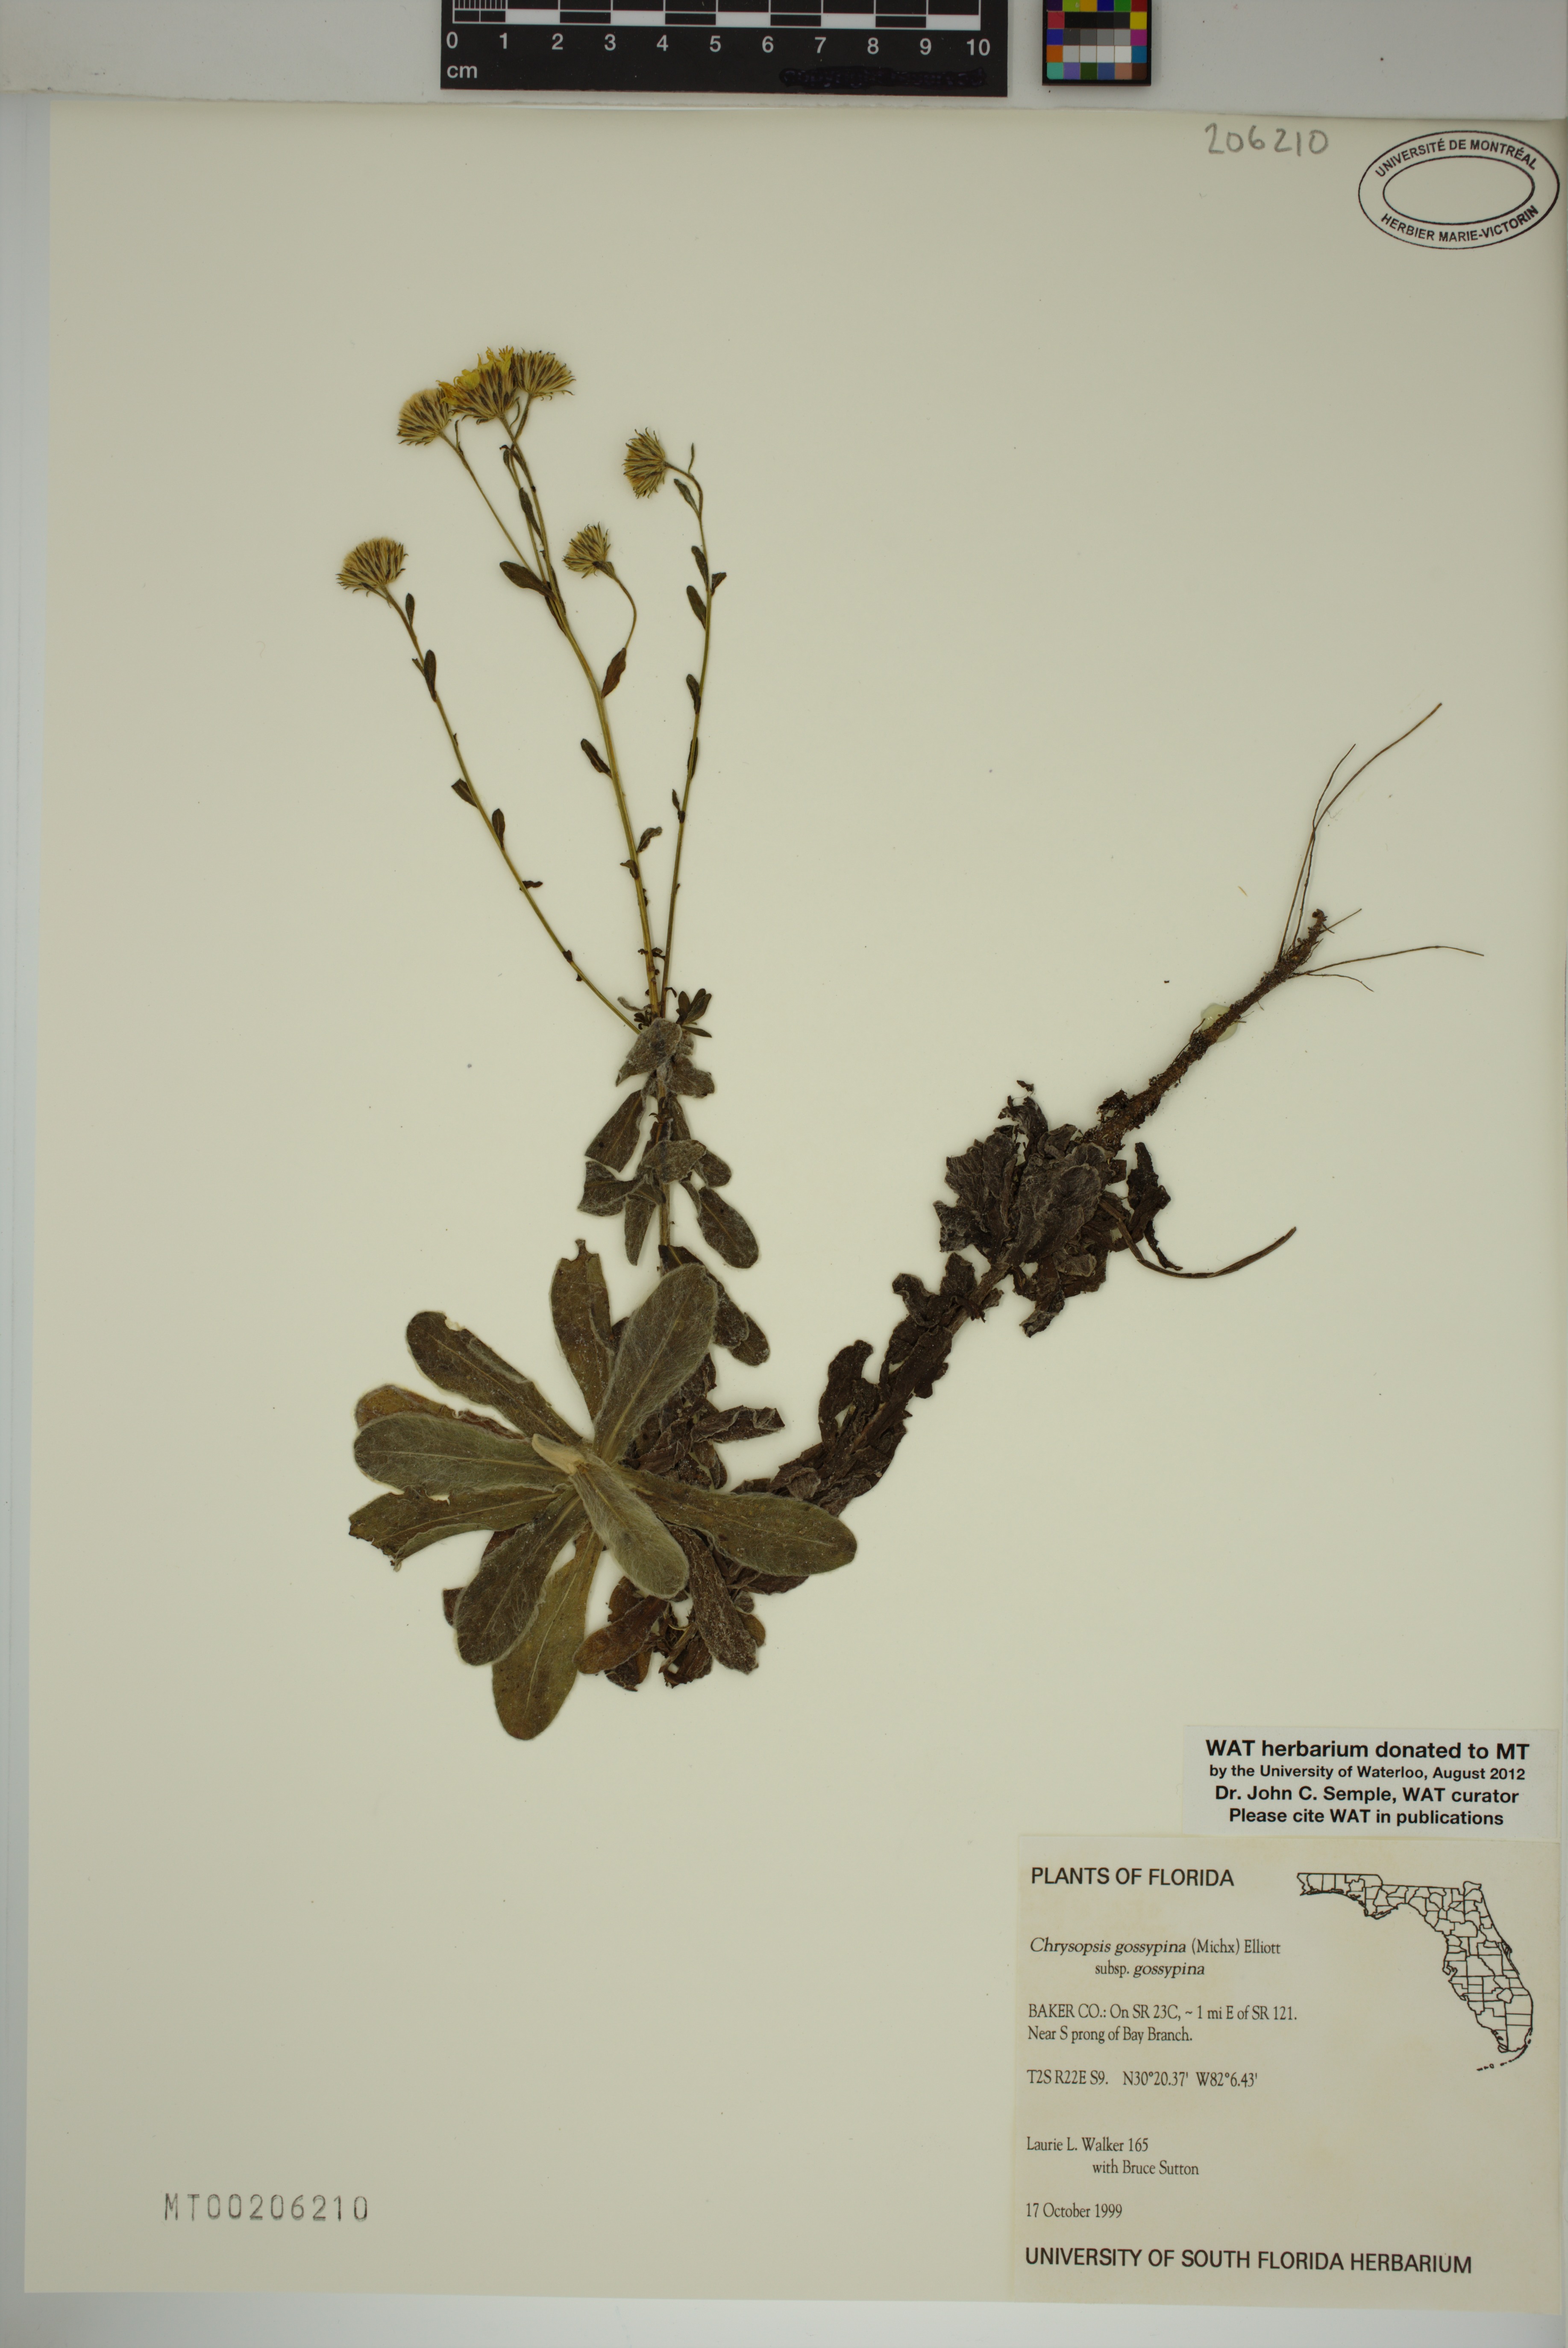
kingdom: Plantae
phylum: Tracheophyta
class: Magnoliopsida
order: Asterales
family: Asteraceae
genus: Chrysopsis
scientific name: Chrysopsis gossypina
